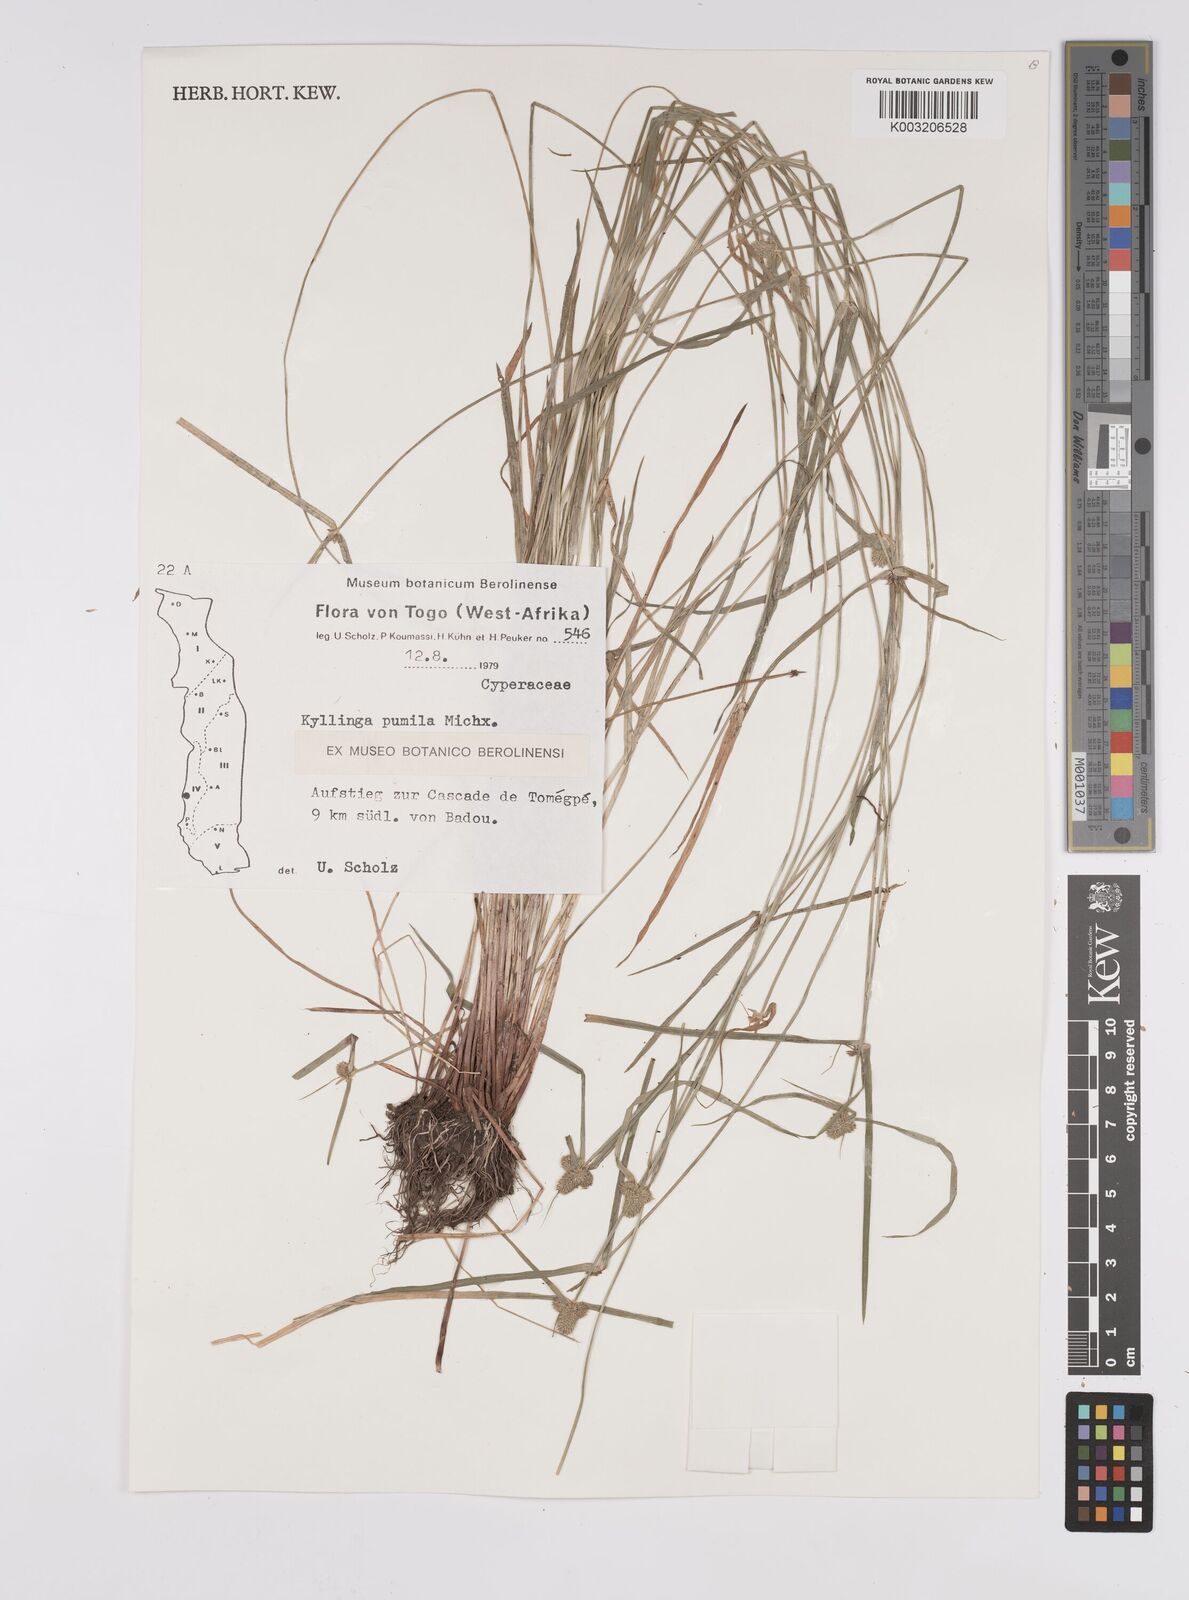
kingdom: Plantae
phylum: Tracheophyta
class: Liliopsida
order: Poales
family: Cyperaceae
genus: Cyperus
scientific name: Cyperus
